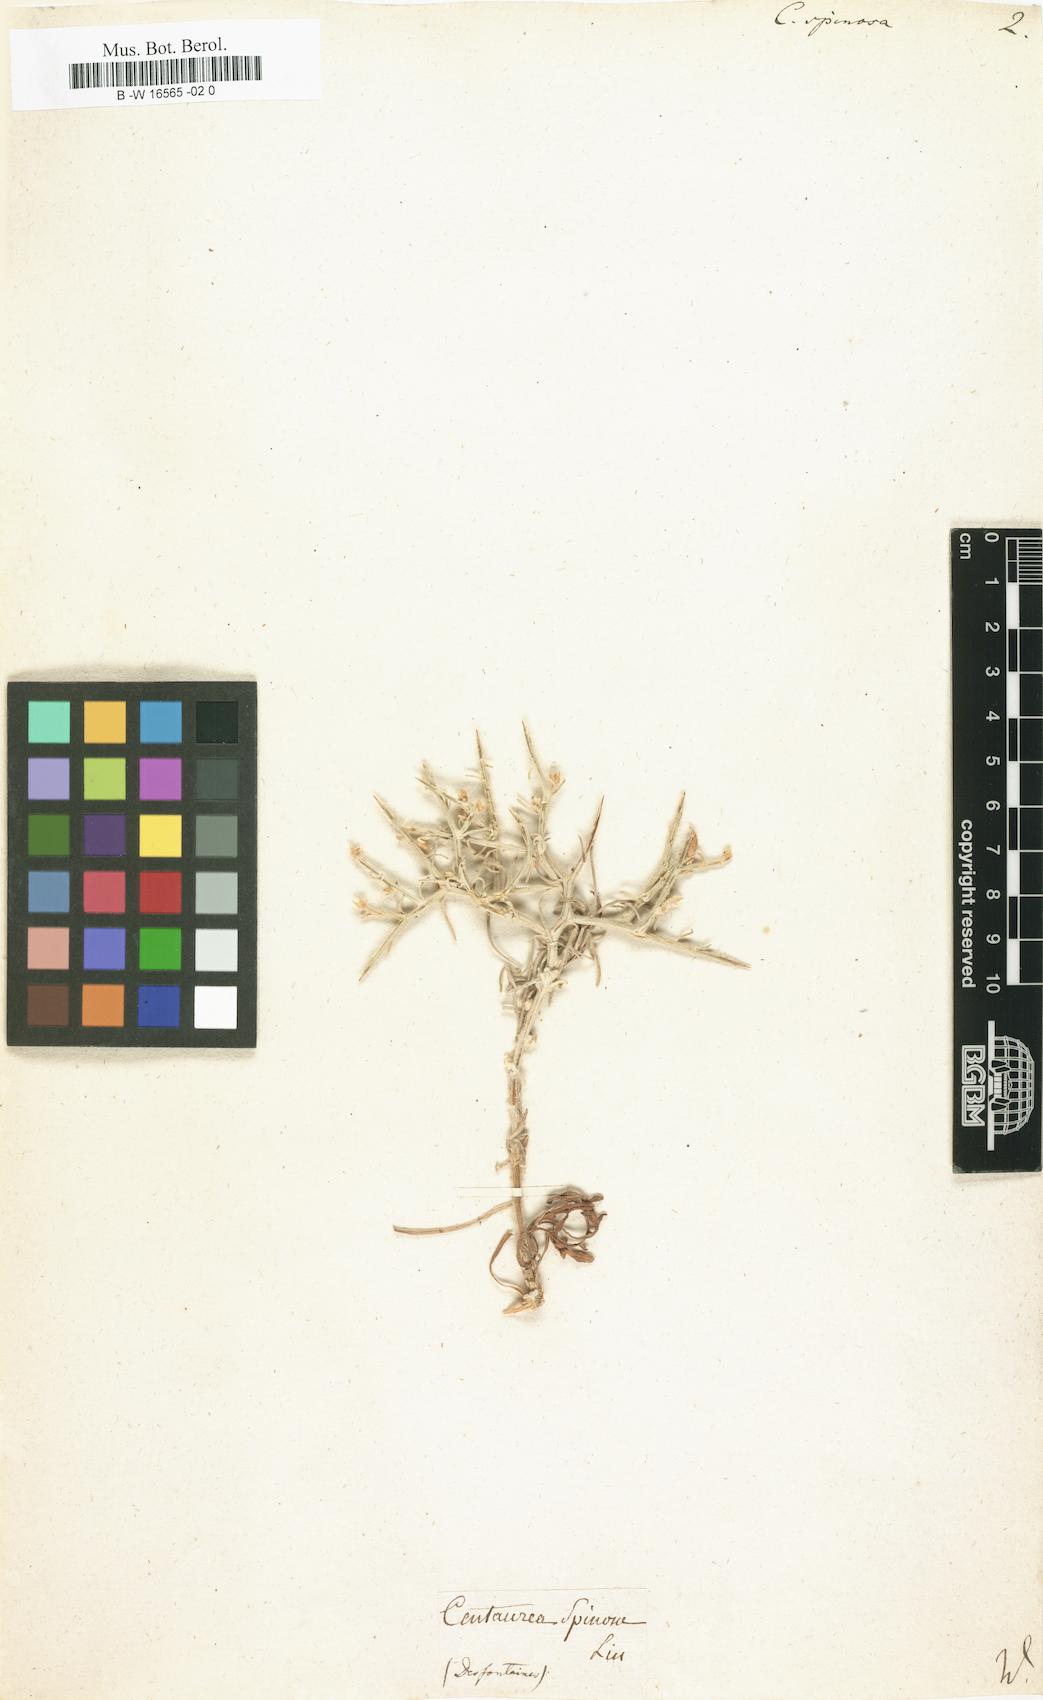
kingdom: Plantae
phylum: Tracheophyta
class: Magnoliopsida
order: Asterales
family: Asteraceae
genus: Centaurea
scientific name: Centaurea spinosa
